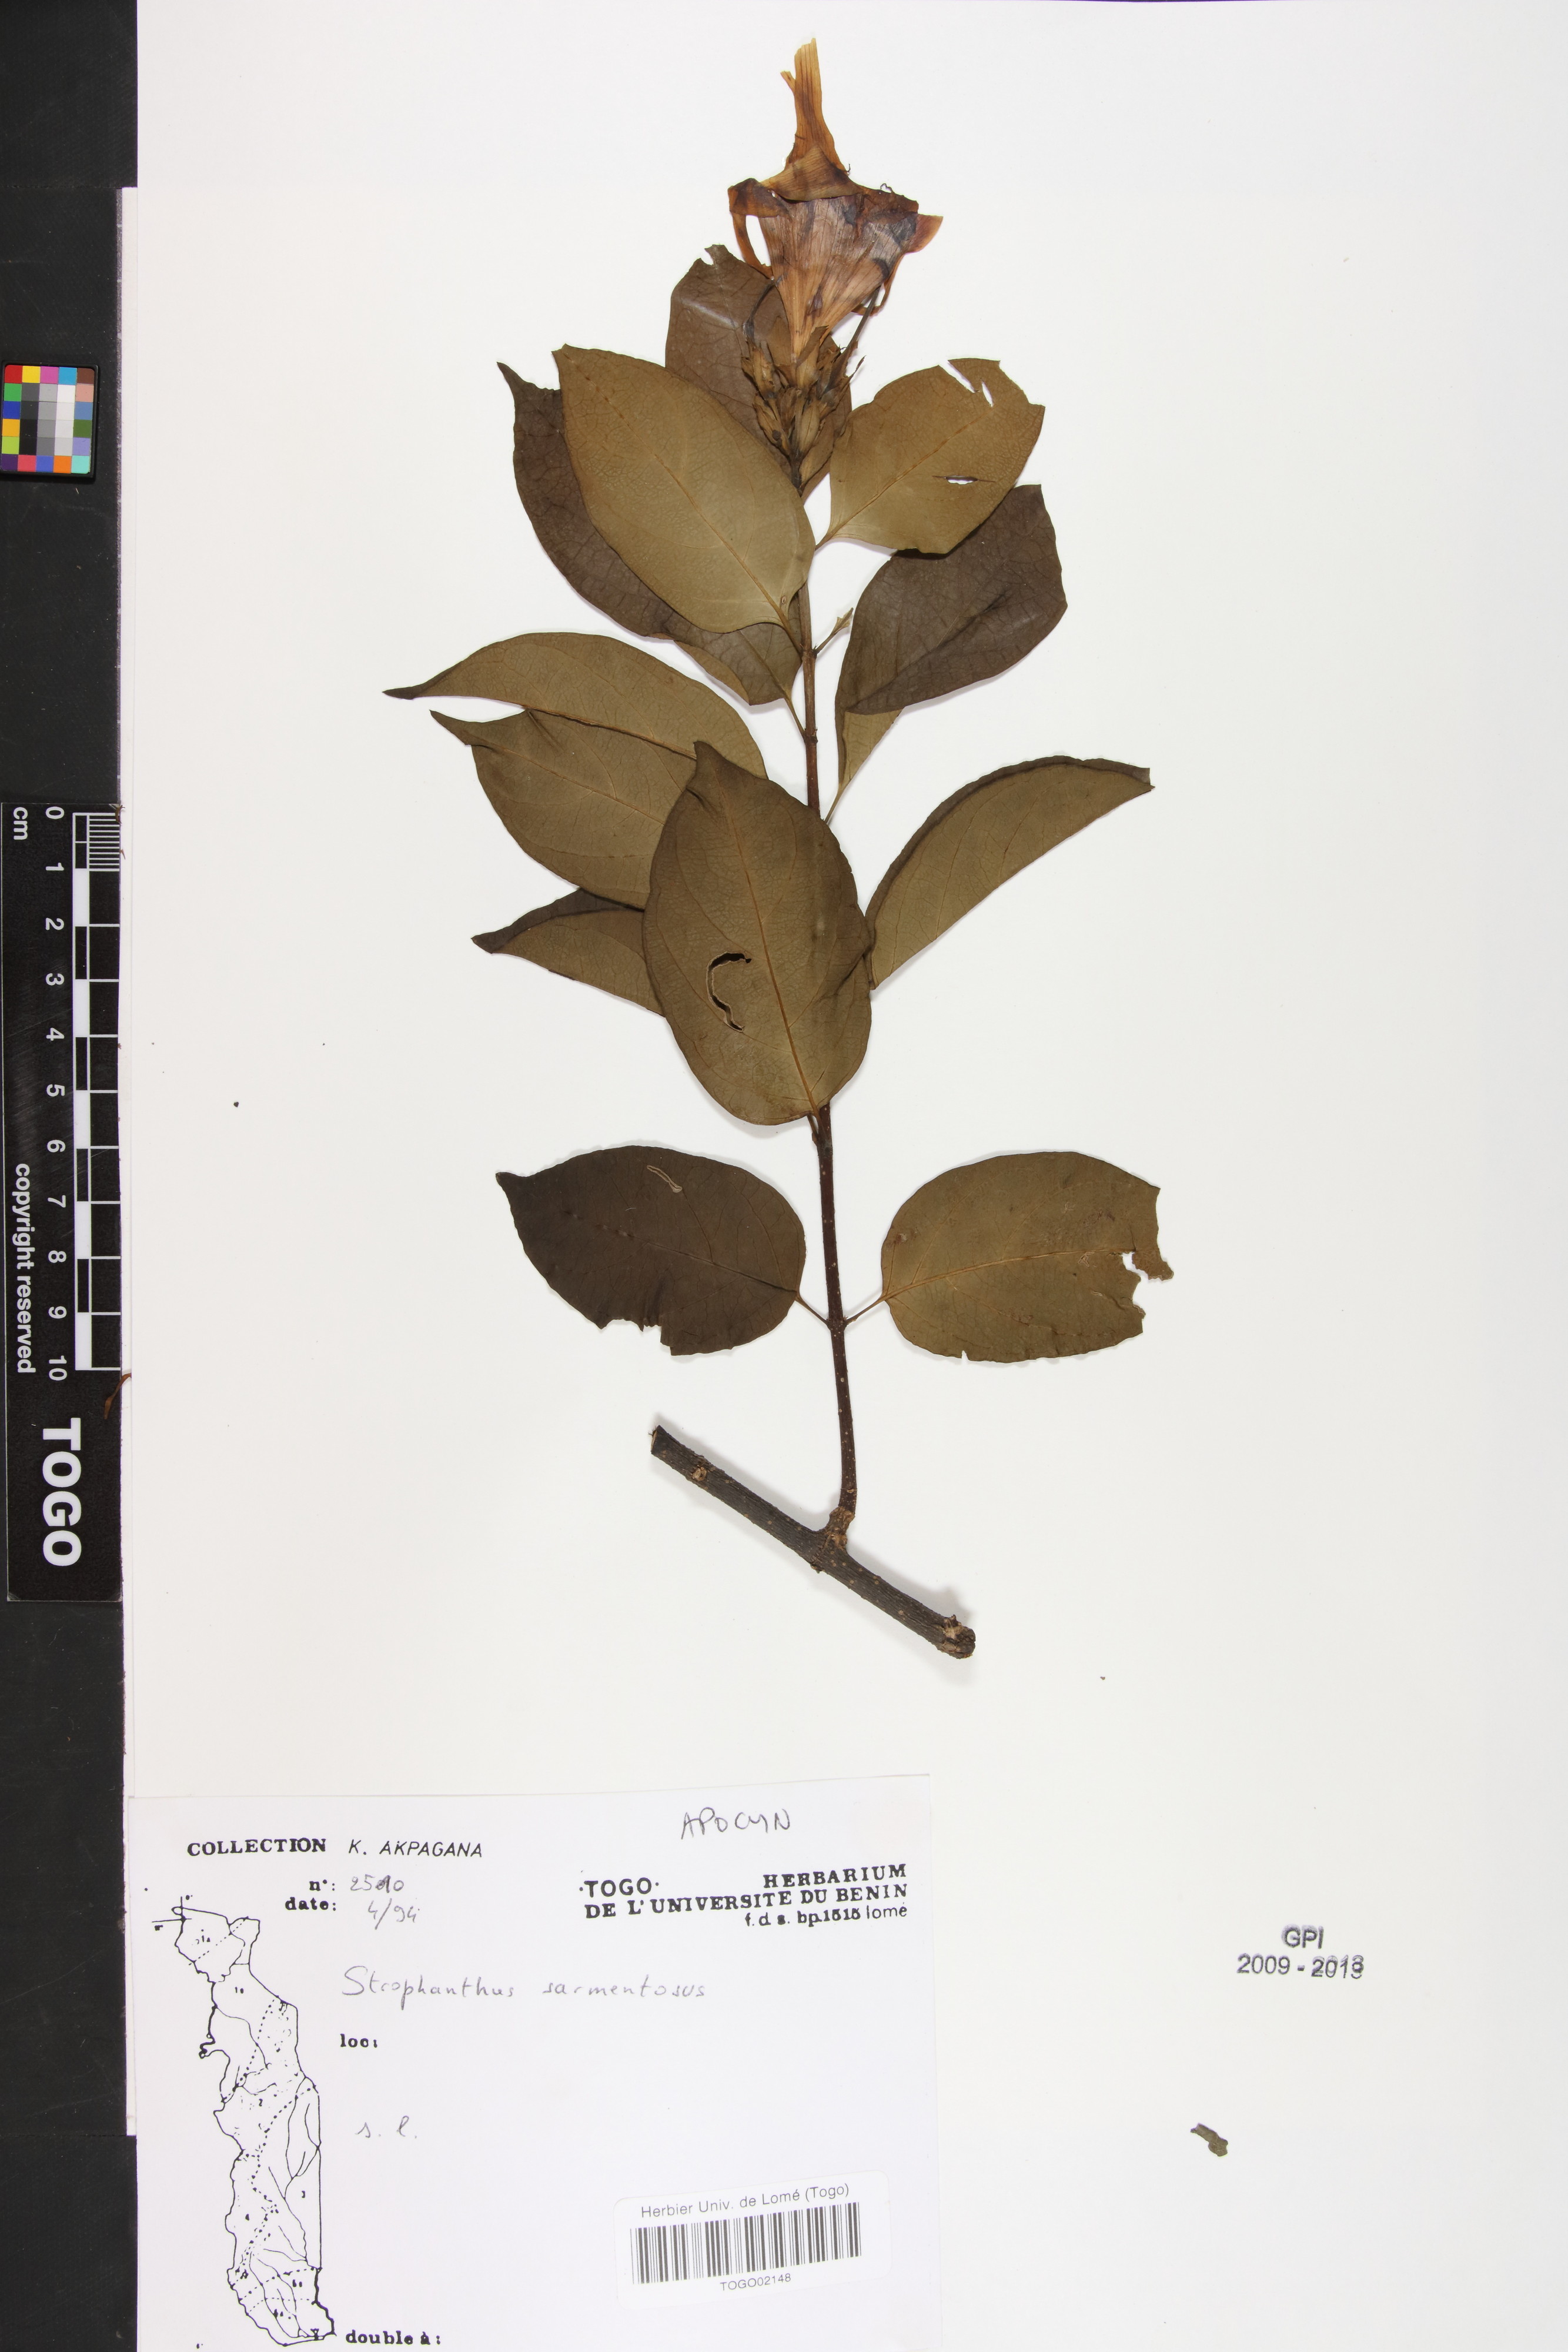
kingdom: Plantae
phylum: Tracheophyta
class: Magnoliopsida
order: Gentianales
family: Apocynaceae
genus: Strophanthus
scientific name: Strophanthus sarmentosus
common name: Poison arrowvine
